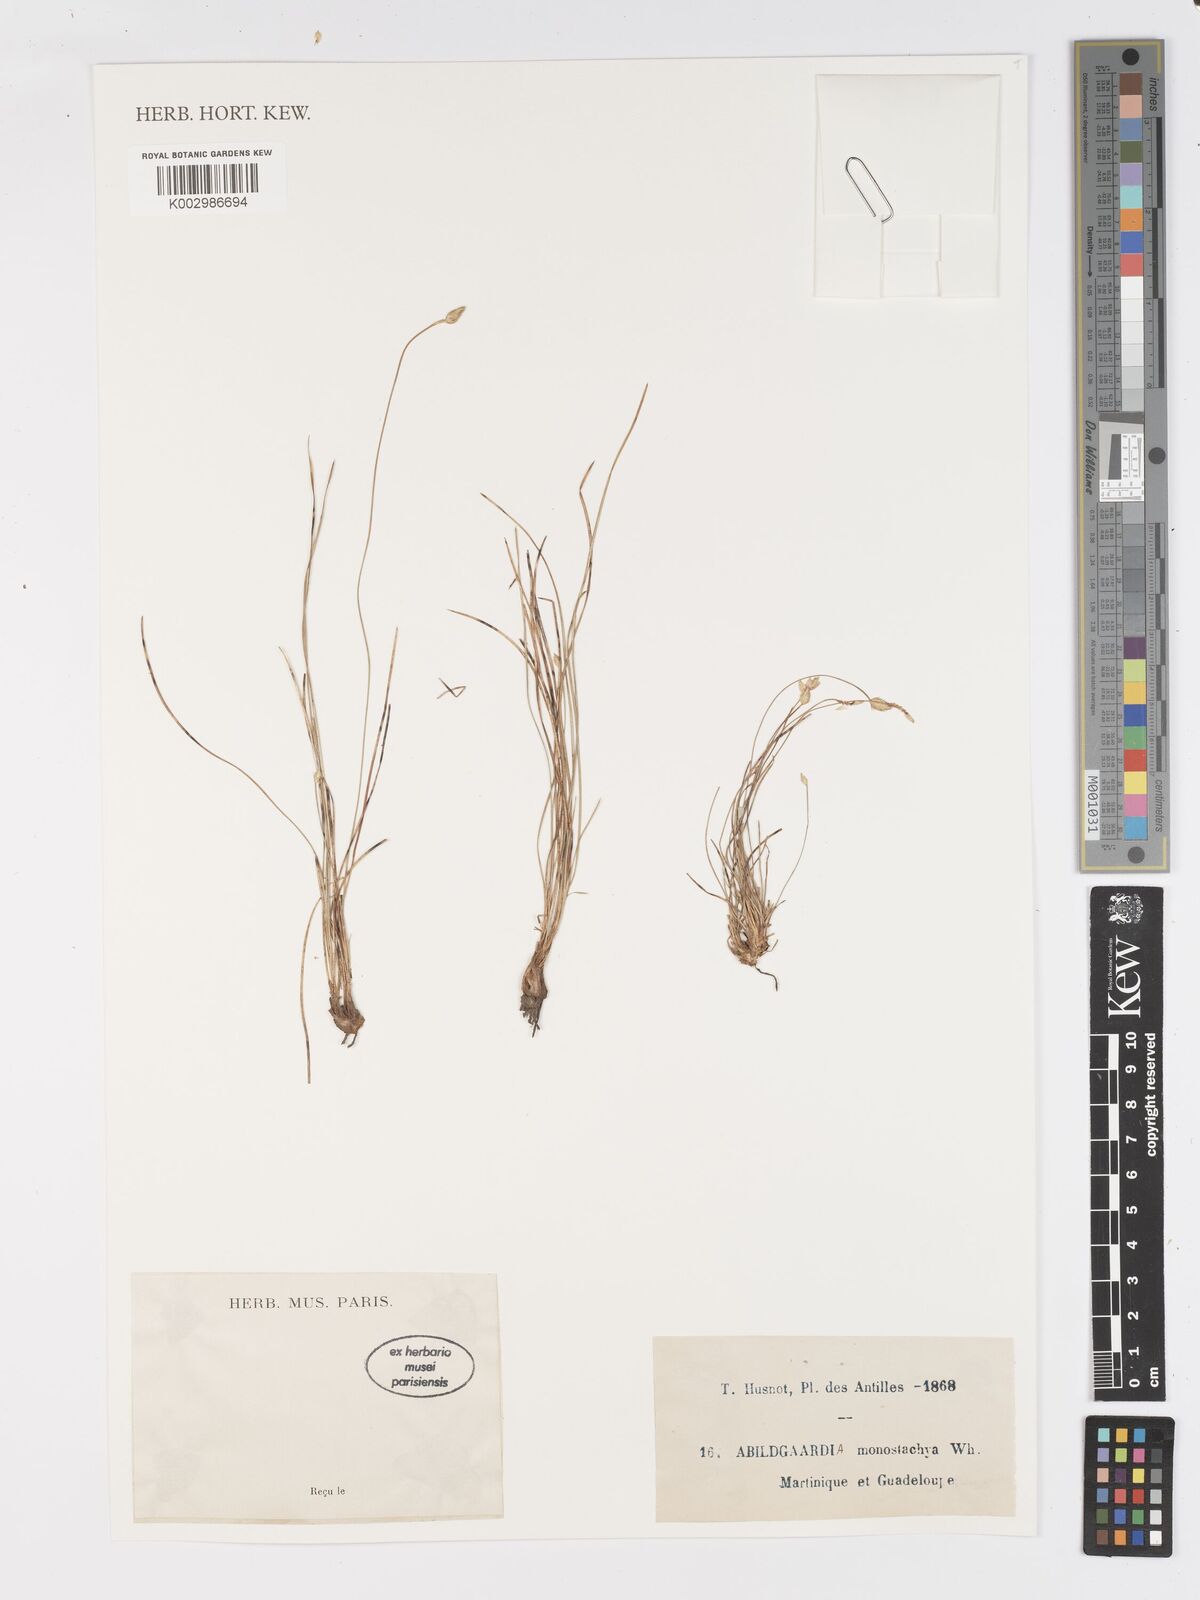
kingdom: Plantae
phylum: Tracheophyta
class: Liliopsida
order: Poales
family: Cyperaceae
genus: Abildgaardia
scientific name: Abildgaardia ovata
